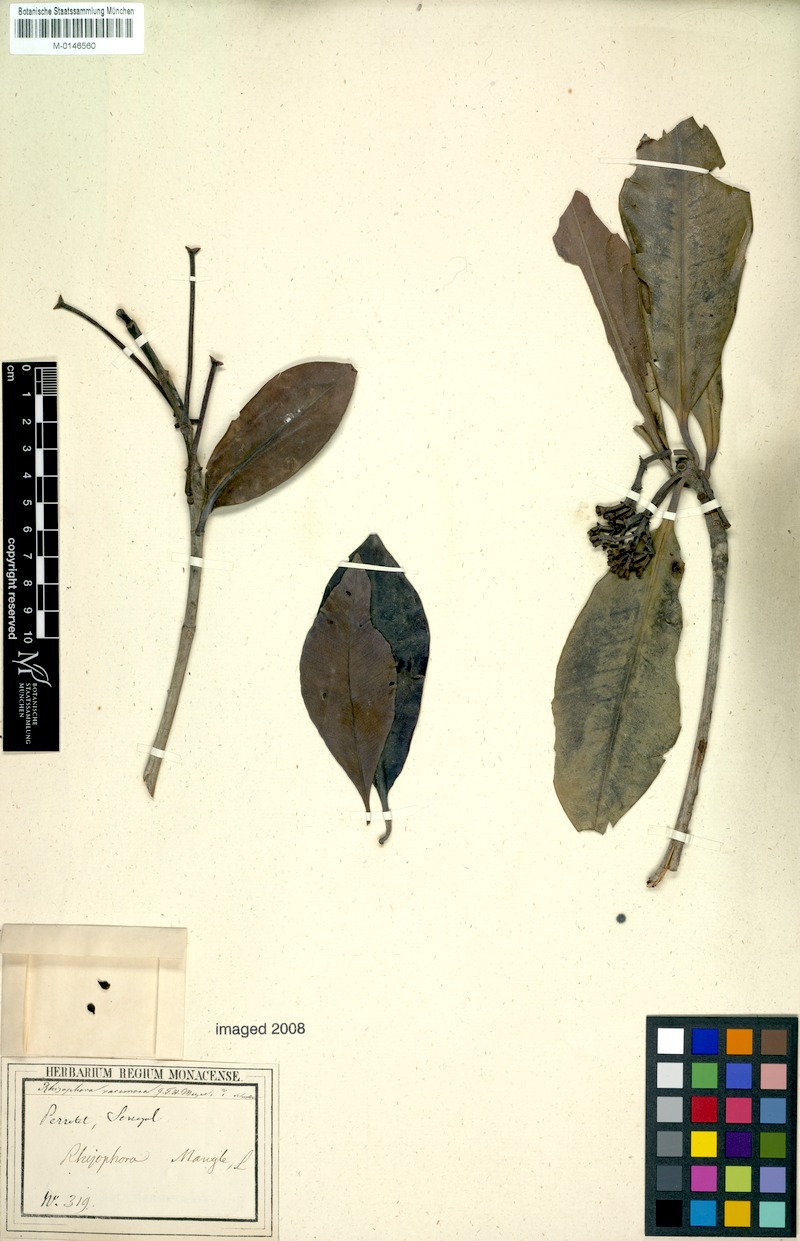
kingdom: Plantae
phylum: Tracheophyta
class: Magnoliopsida
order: Malpighiales
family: Rhizophoraceae
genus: Rhizophora
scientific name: Rhizophora racemosa
